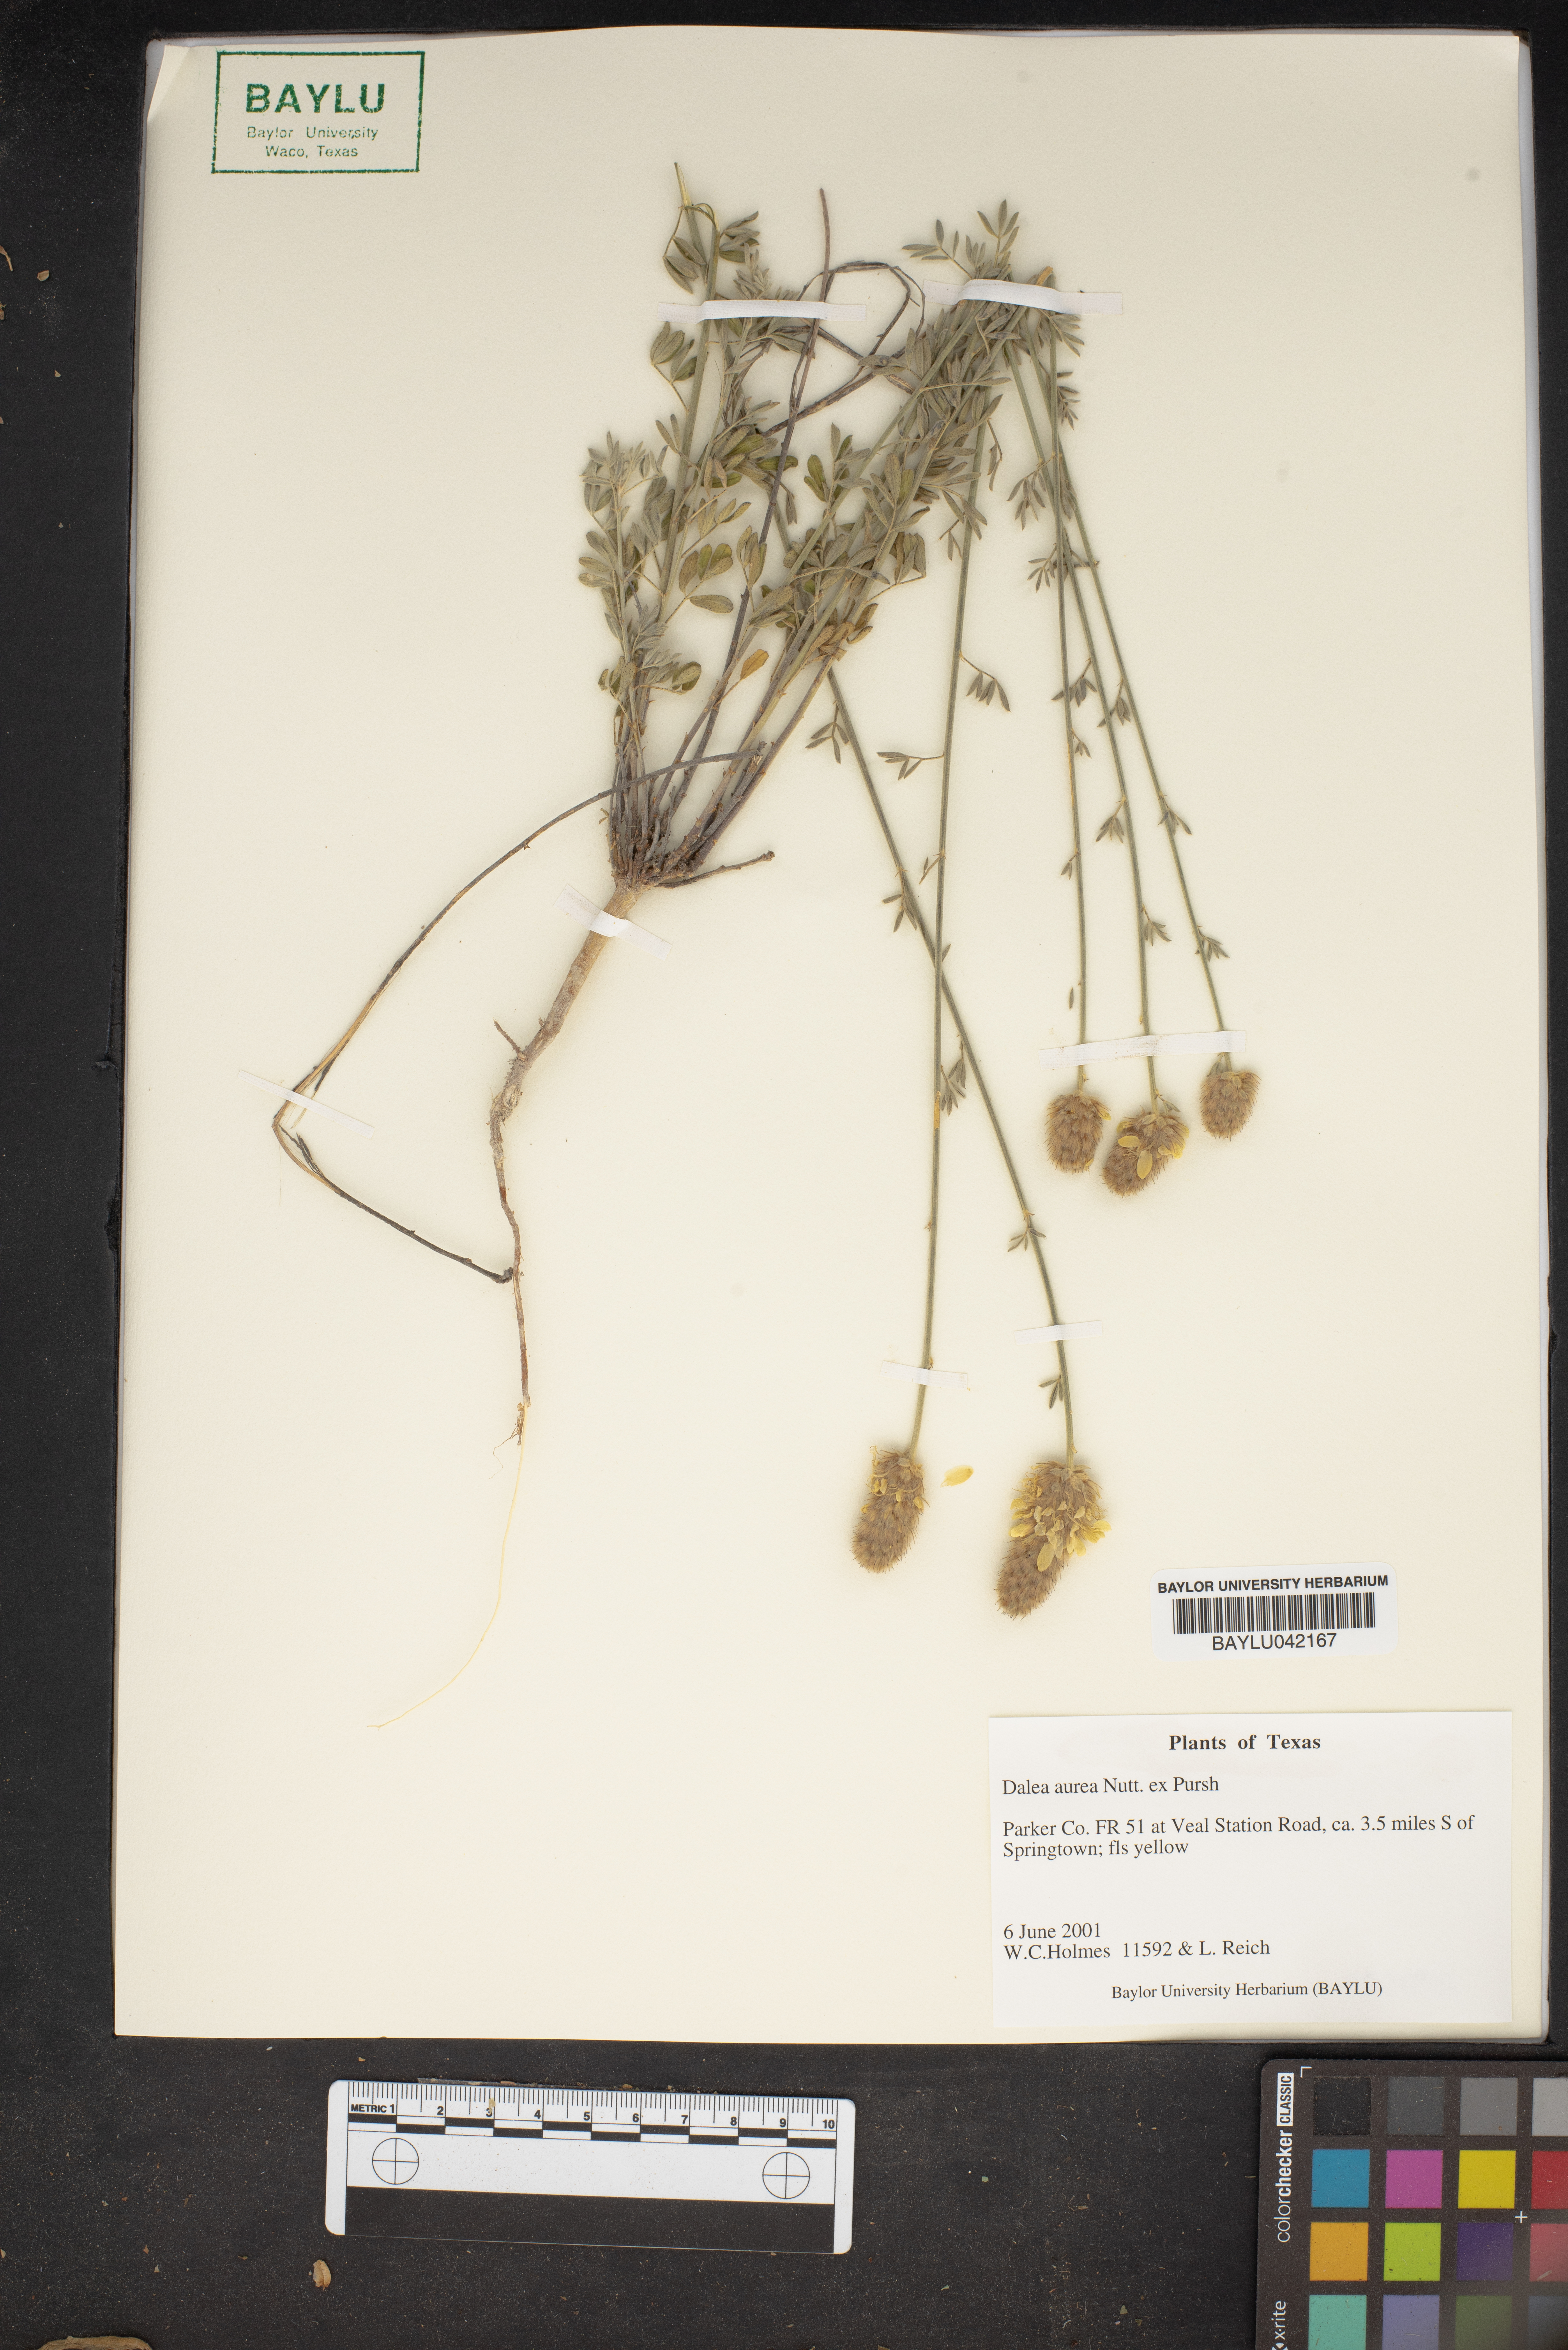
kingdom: Plantae
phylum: Tracheophyta
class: Magnoliopsida
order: Fabales
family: Fabaceae
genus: Dalea
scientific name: Dalea aurea
